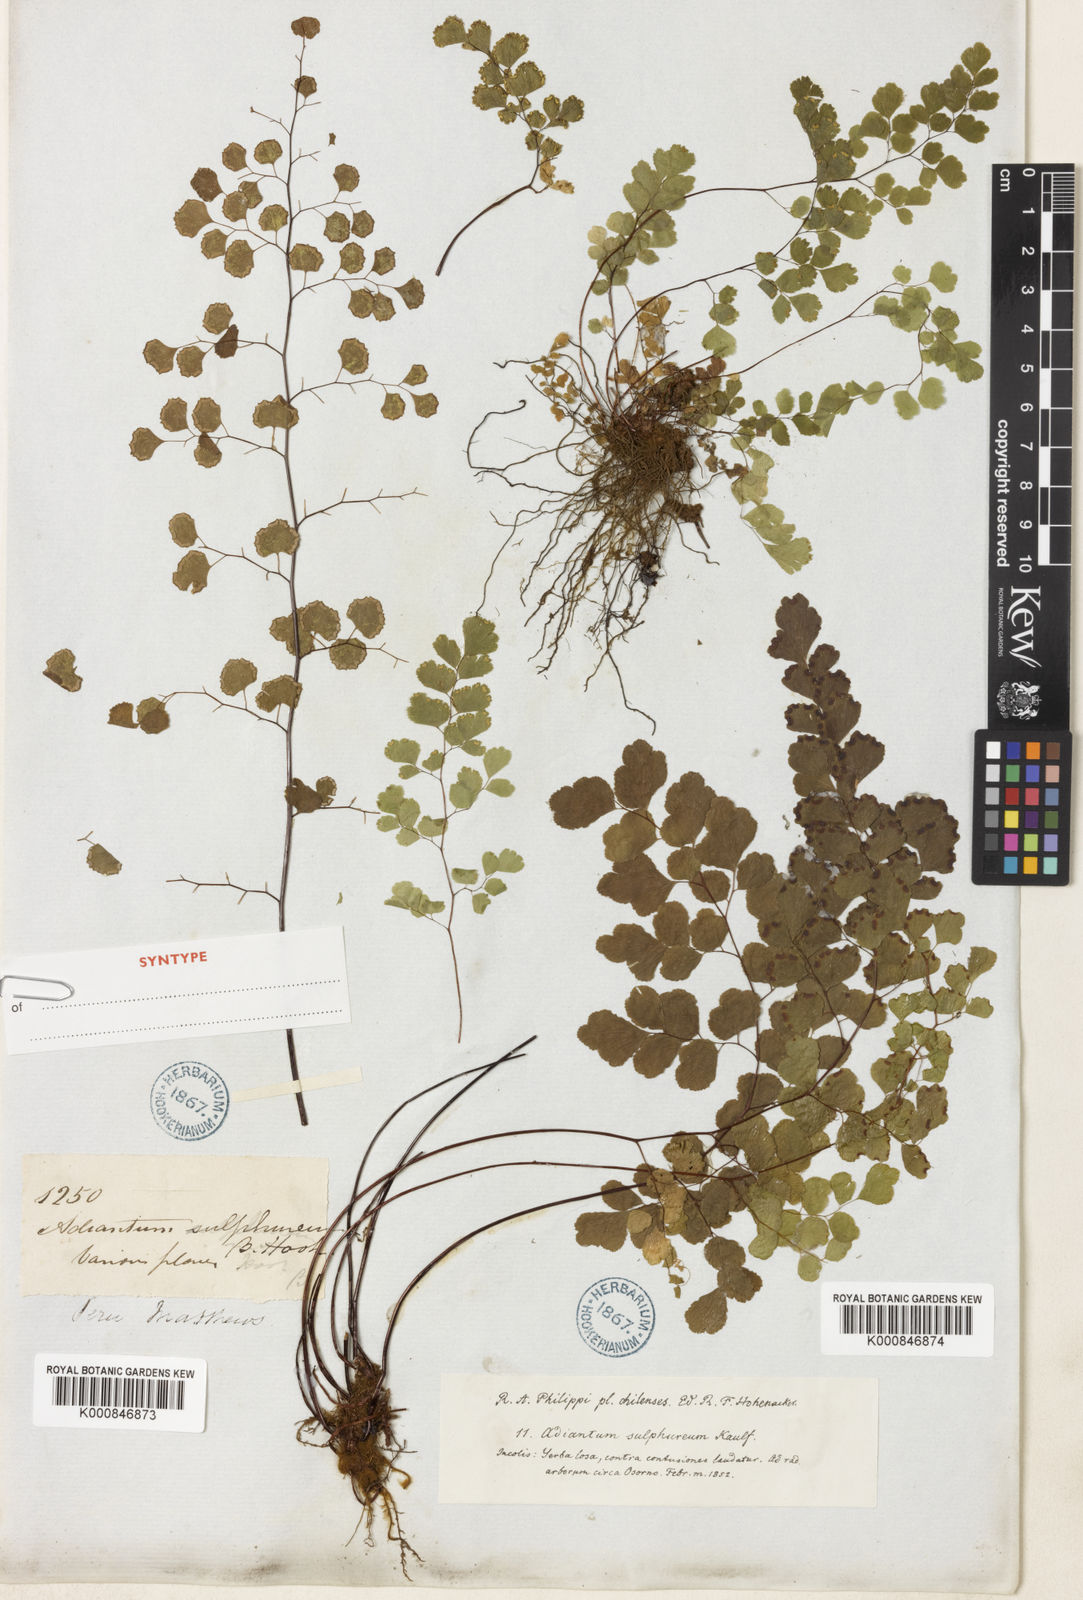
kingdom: Plantae
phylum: Tracheophyta
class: Polypodiopsida
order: Polypodiales
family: Pteridaceae
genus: Adiantum
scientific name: Adiantum chilense
